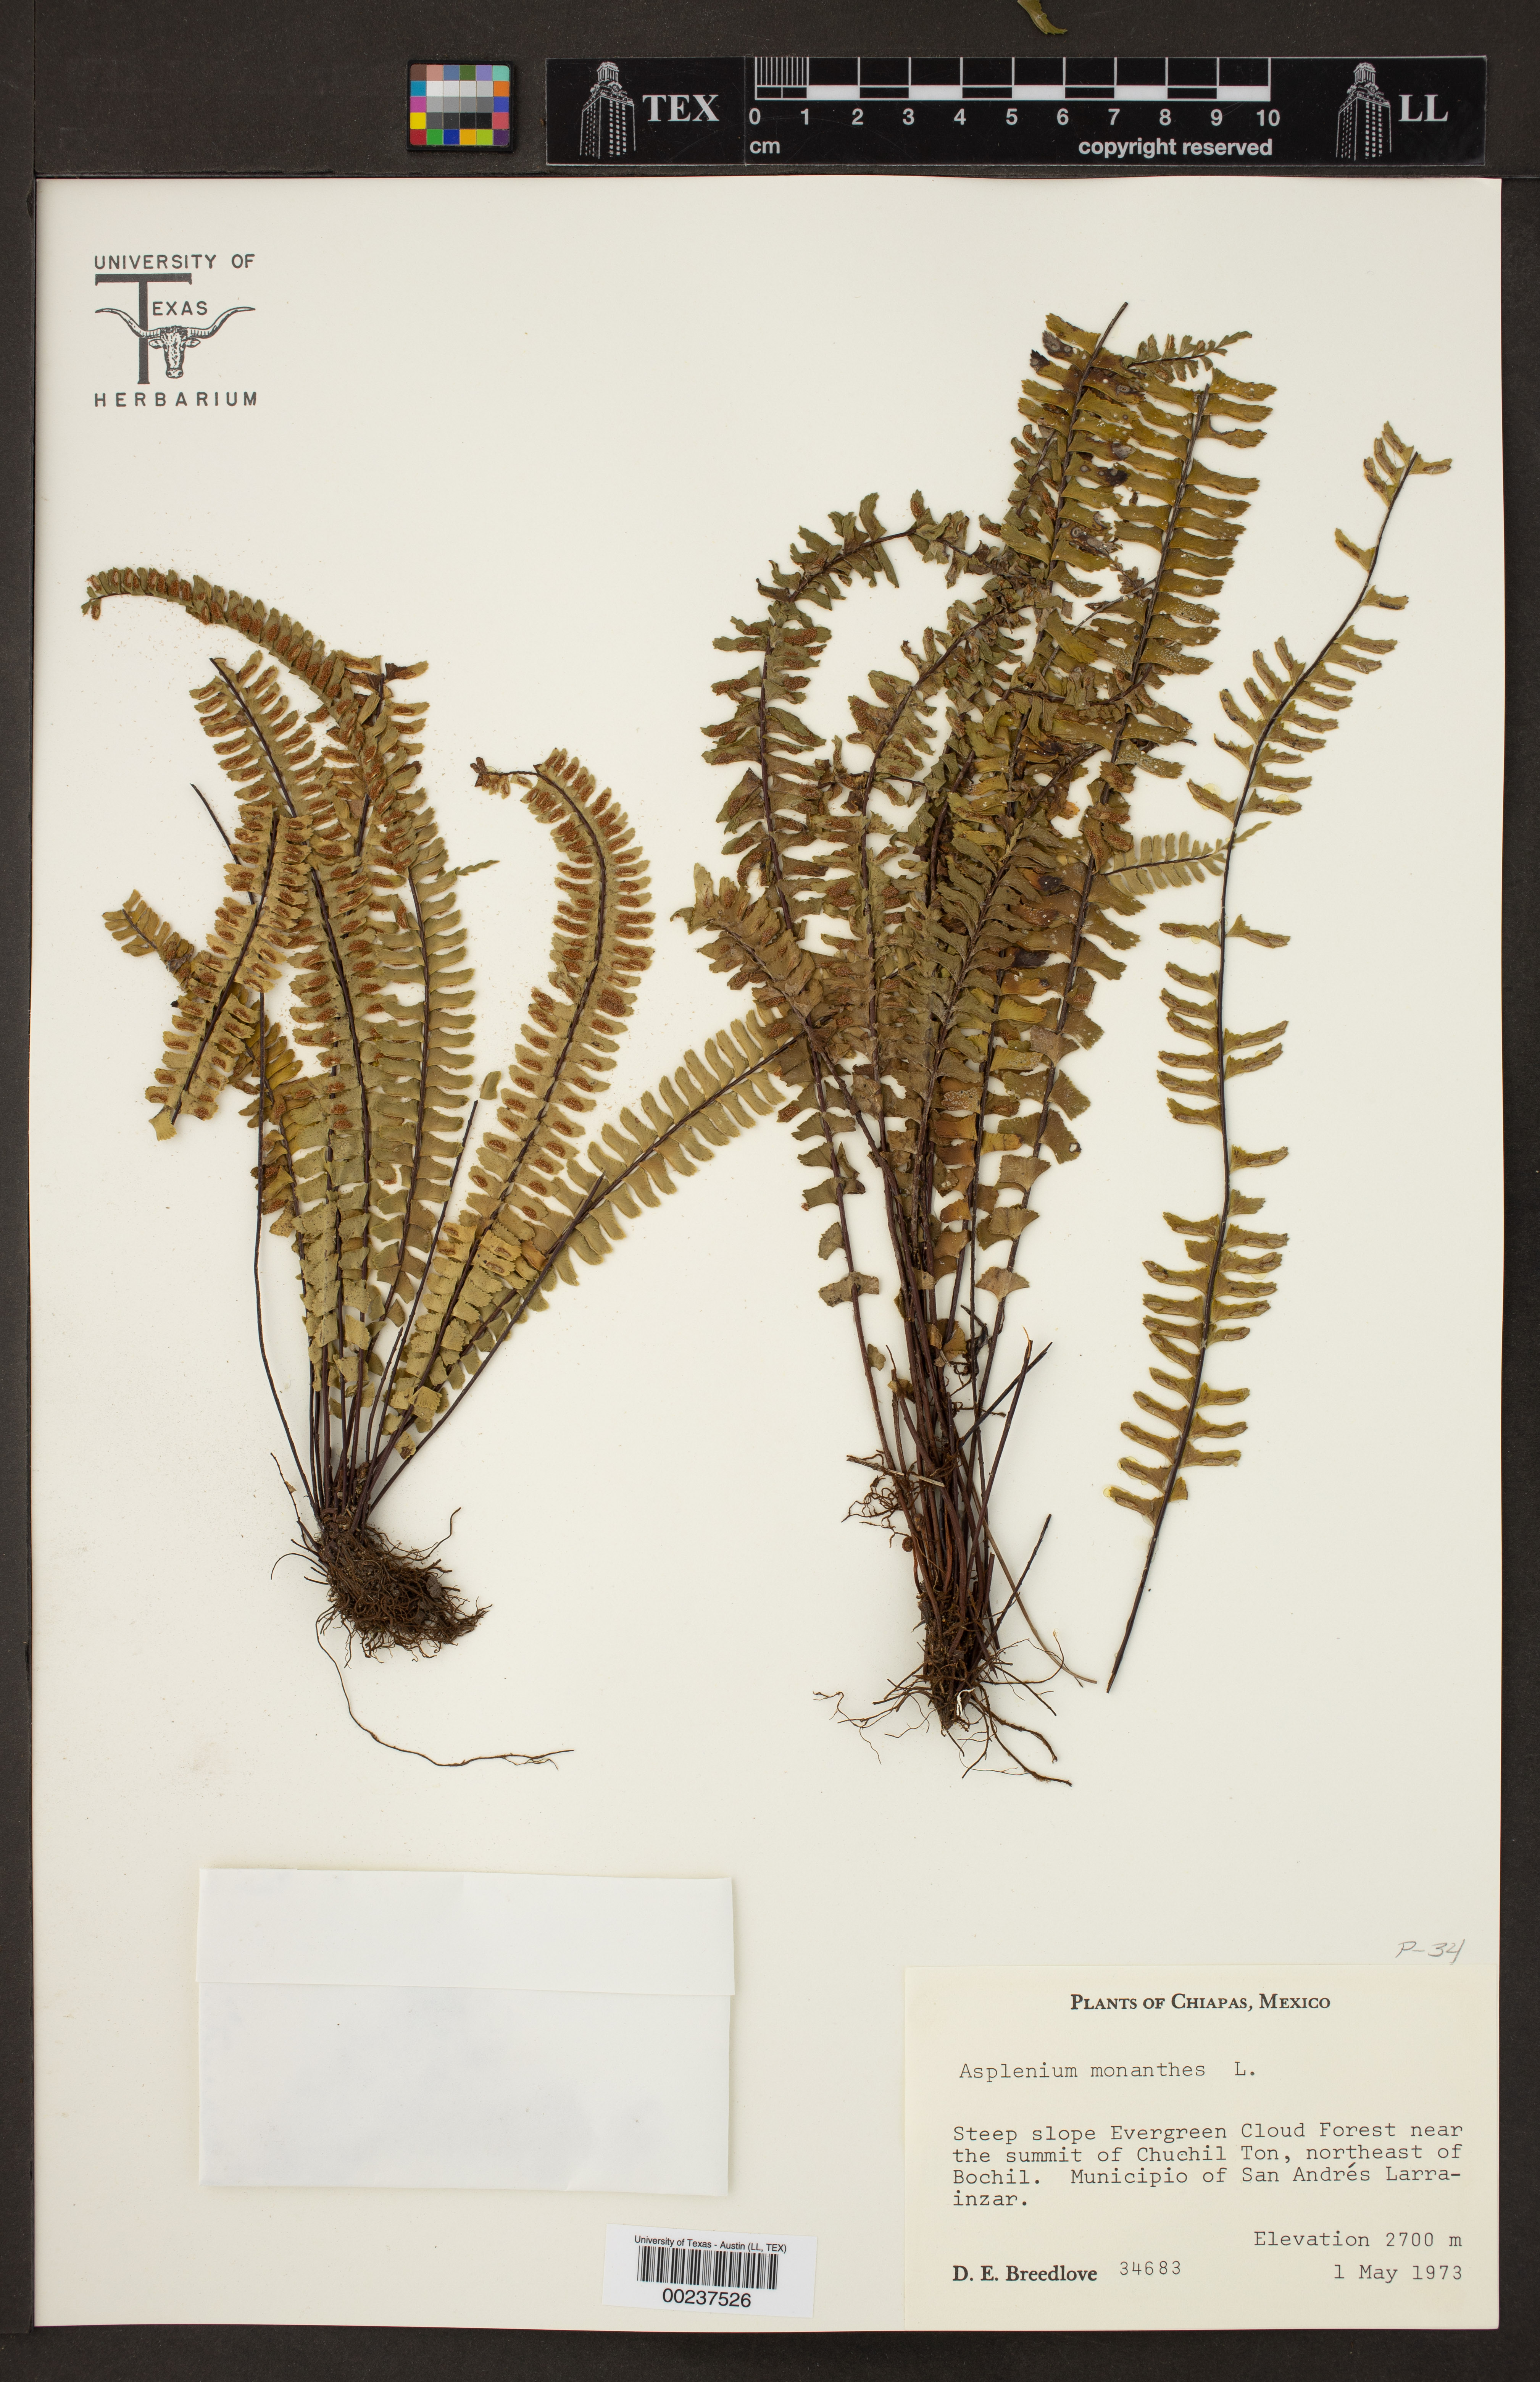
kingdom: Plantae
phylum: Tracheophyta
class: Polypodiopsida
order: Polypodiales
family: Aspleniaceae
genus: Asplenium
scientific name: Asplenium monanthes
